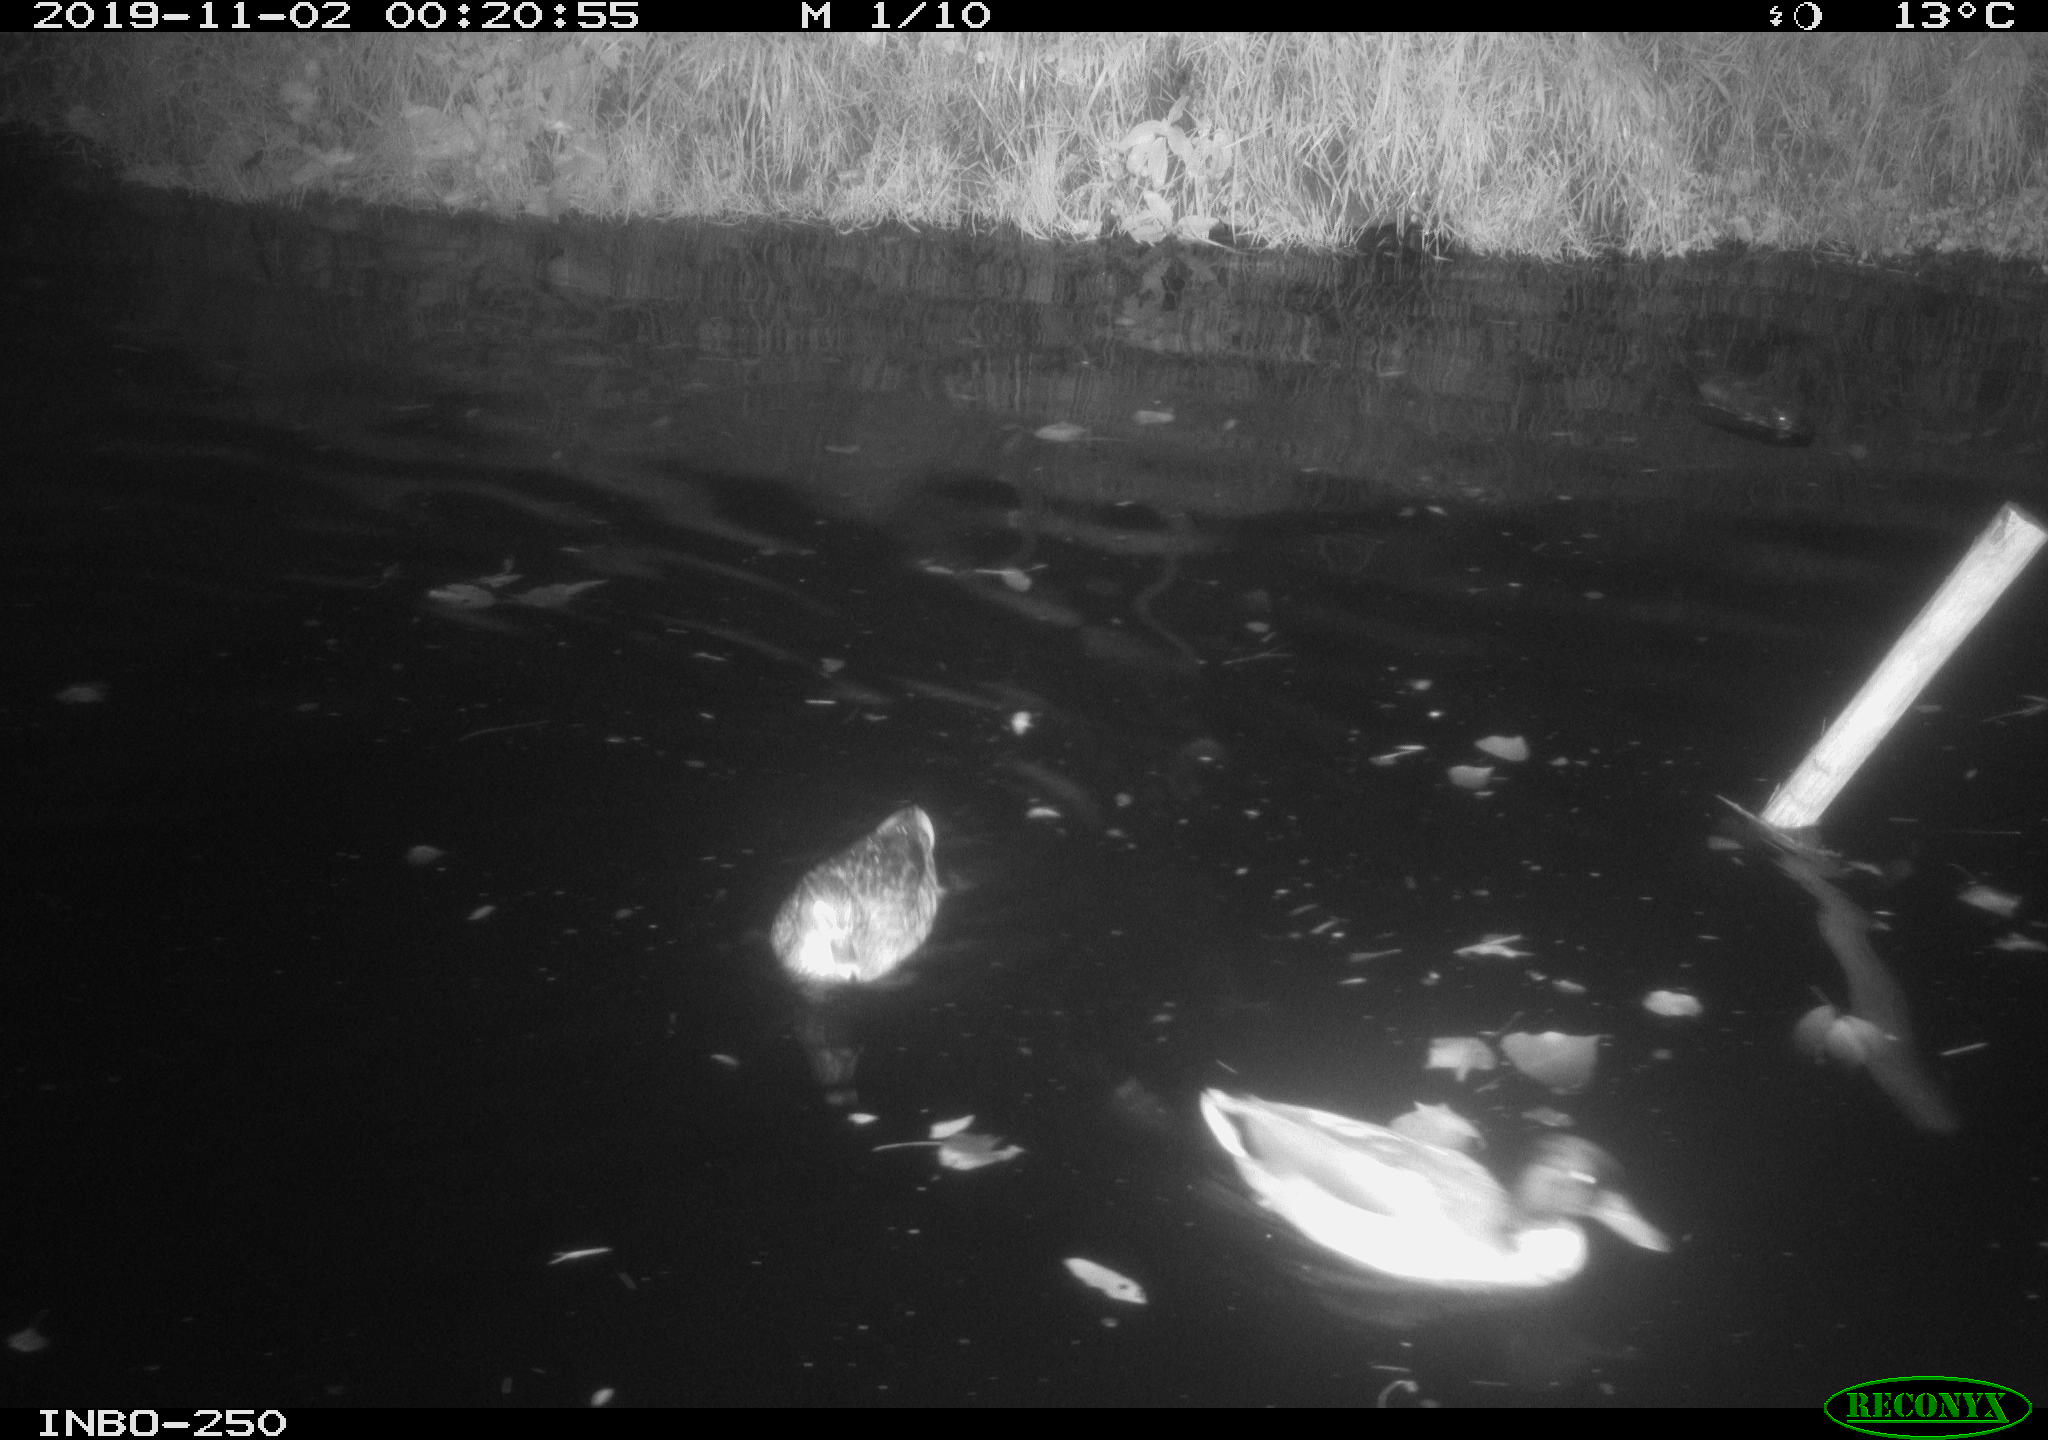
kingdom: Animalia
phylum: Chordata
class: Aves
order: Anseriformes
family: Anatidae
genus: Anas
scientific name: Anas platyrhynchos
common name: Mallard
